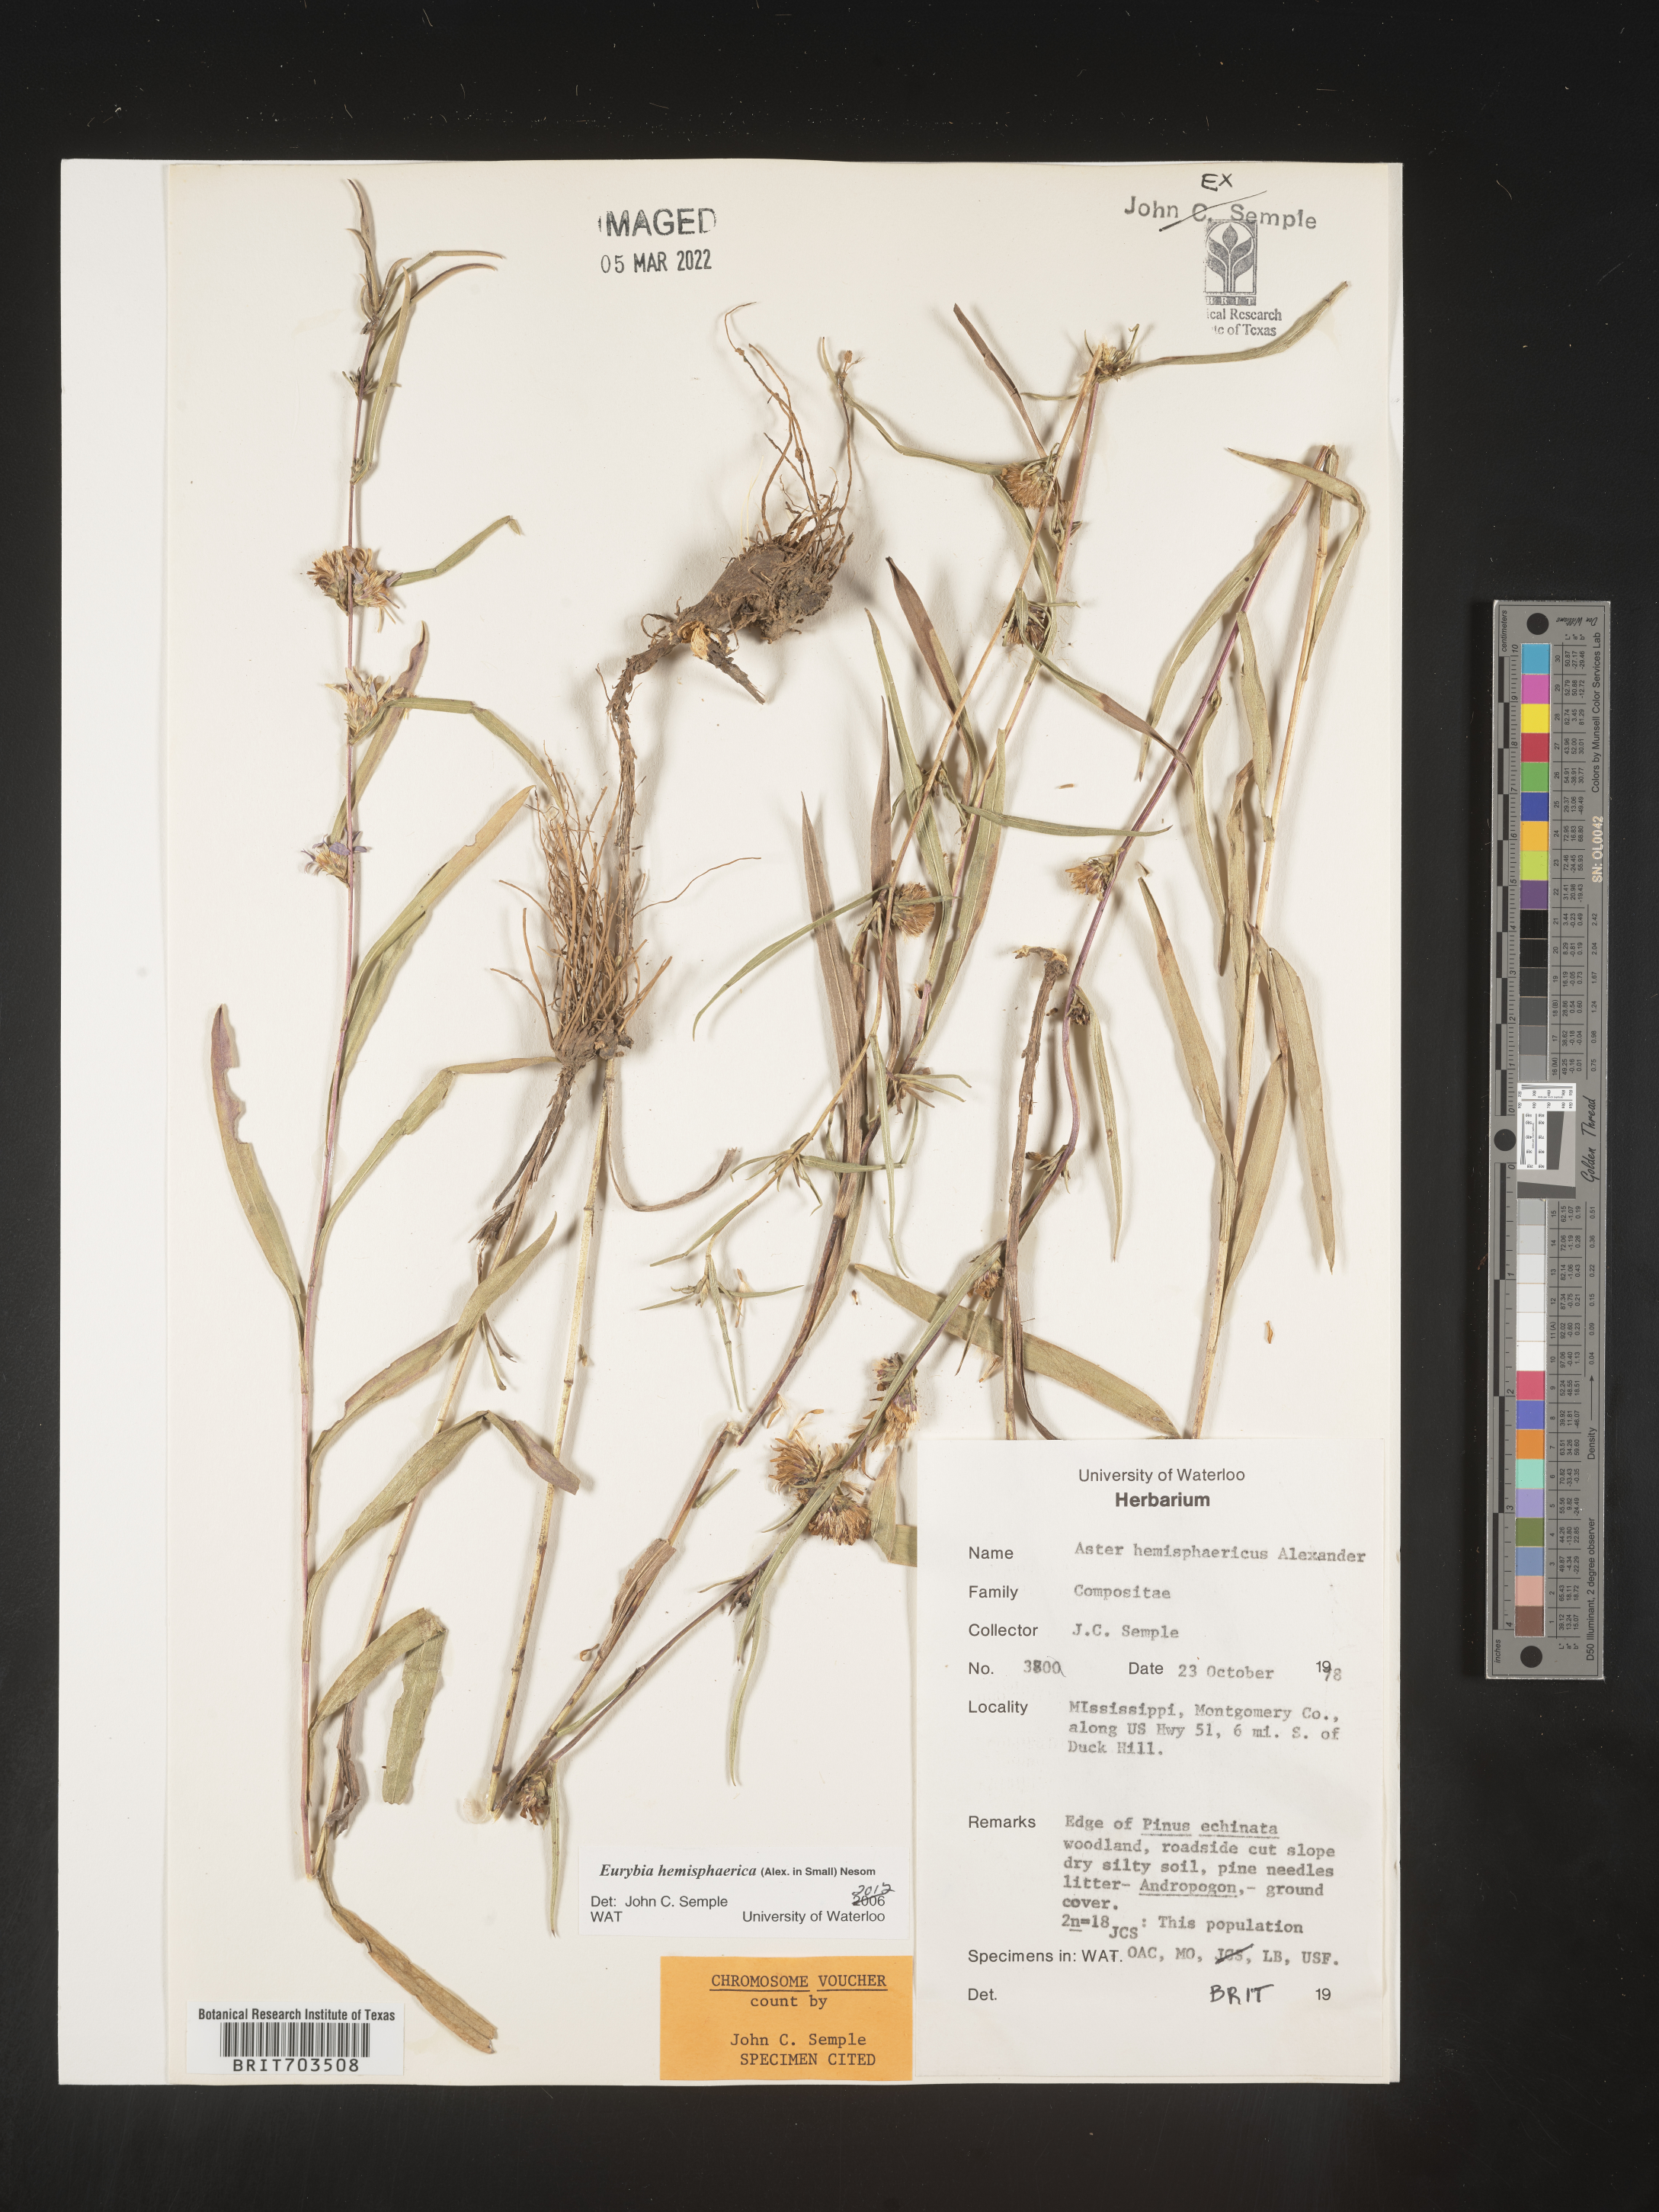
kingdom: Plantae
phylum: Tracheophyta
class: Magnoliopsida
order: Asterales
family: Asteraceae
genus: Eurybia
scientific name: Eurybia hemispherica
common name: Showy aster
